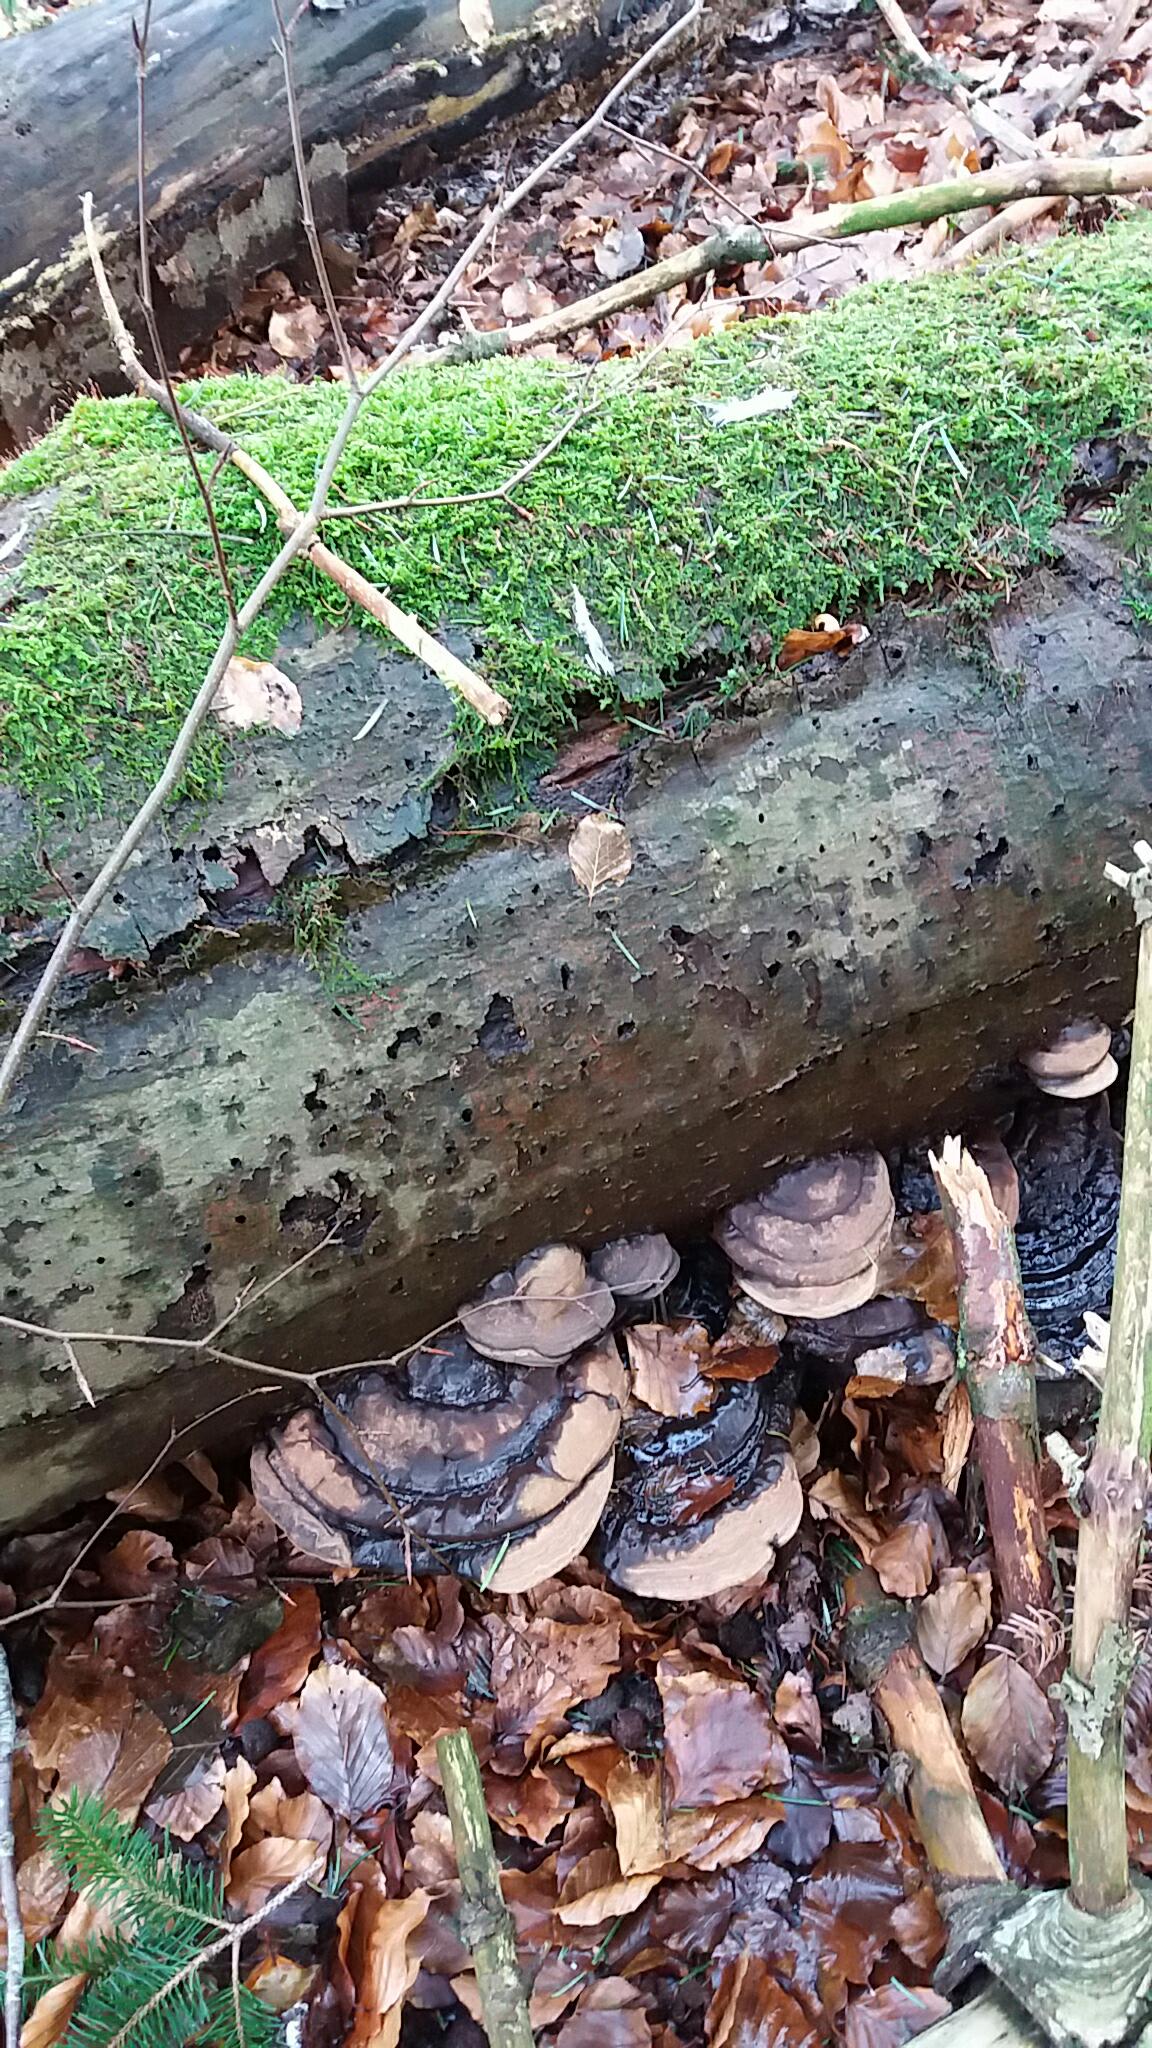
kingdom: Fungi
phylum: Basidiomycota
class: Agaricomycetes
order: Polyporales
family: Polyporaceae
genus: Ganoderma
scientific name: Ganoderma pfeifferi
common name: kobberrød lakporesvamp
